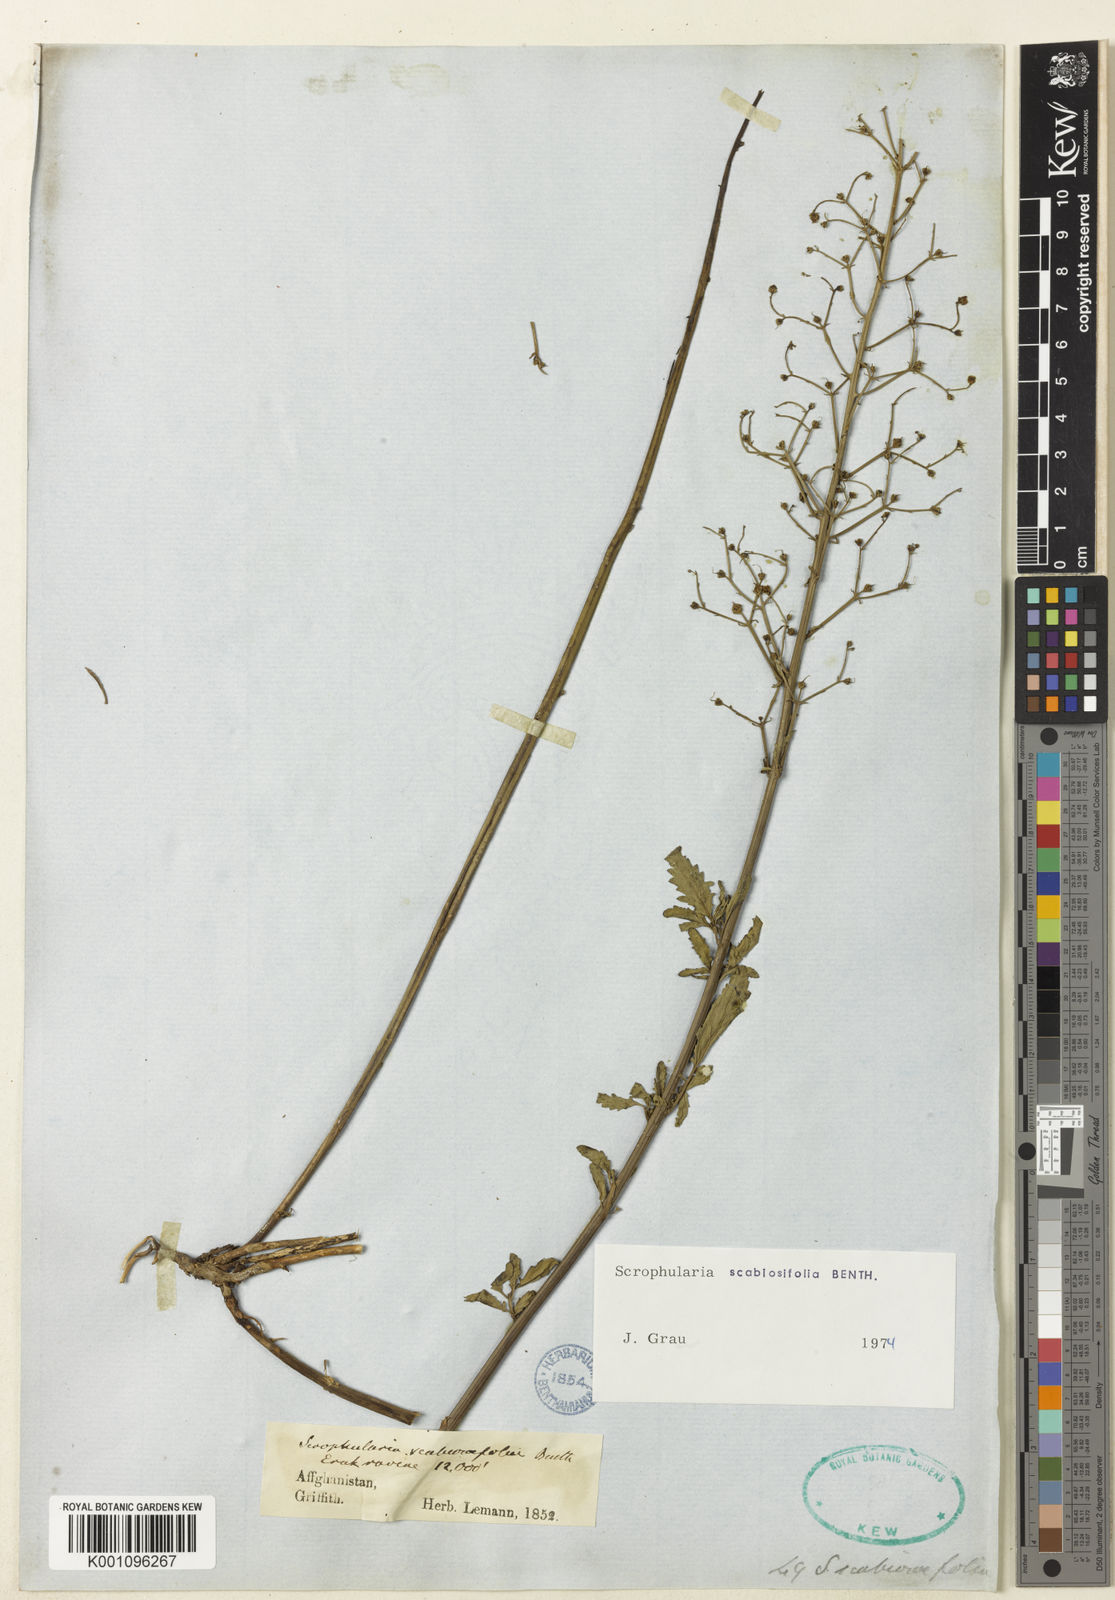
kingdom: Plantae
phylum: Tracheophyta
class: Magnoliopsida
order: Lamiales
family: Scrophulariaceae
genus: Scrophularia
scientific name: Scrophularia scabiosifolia
